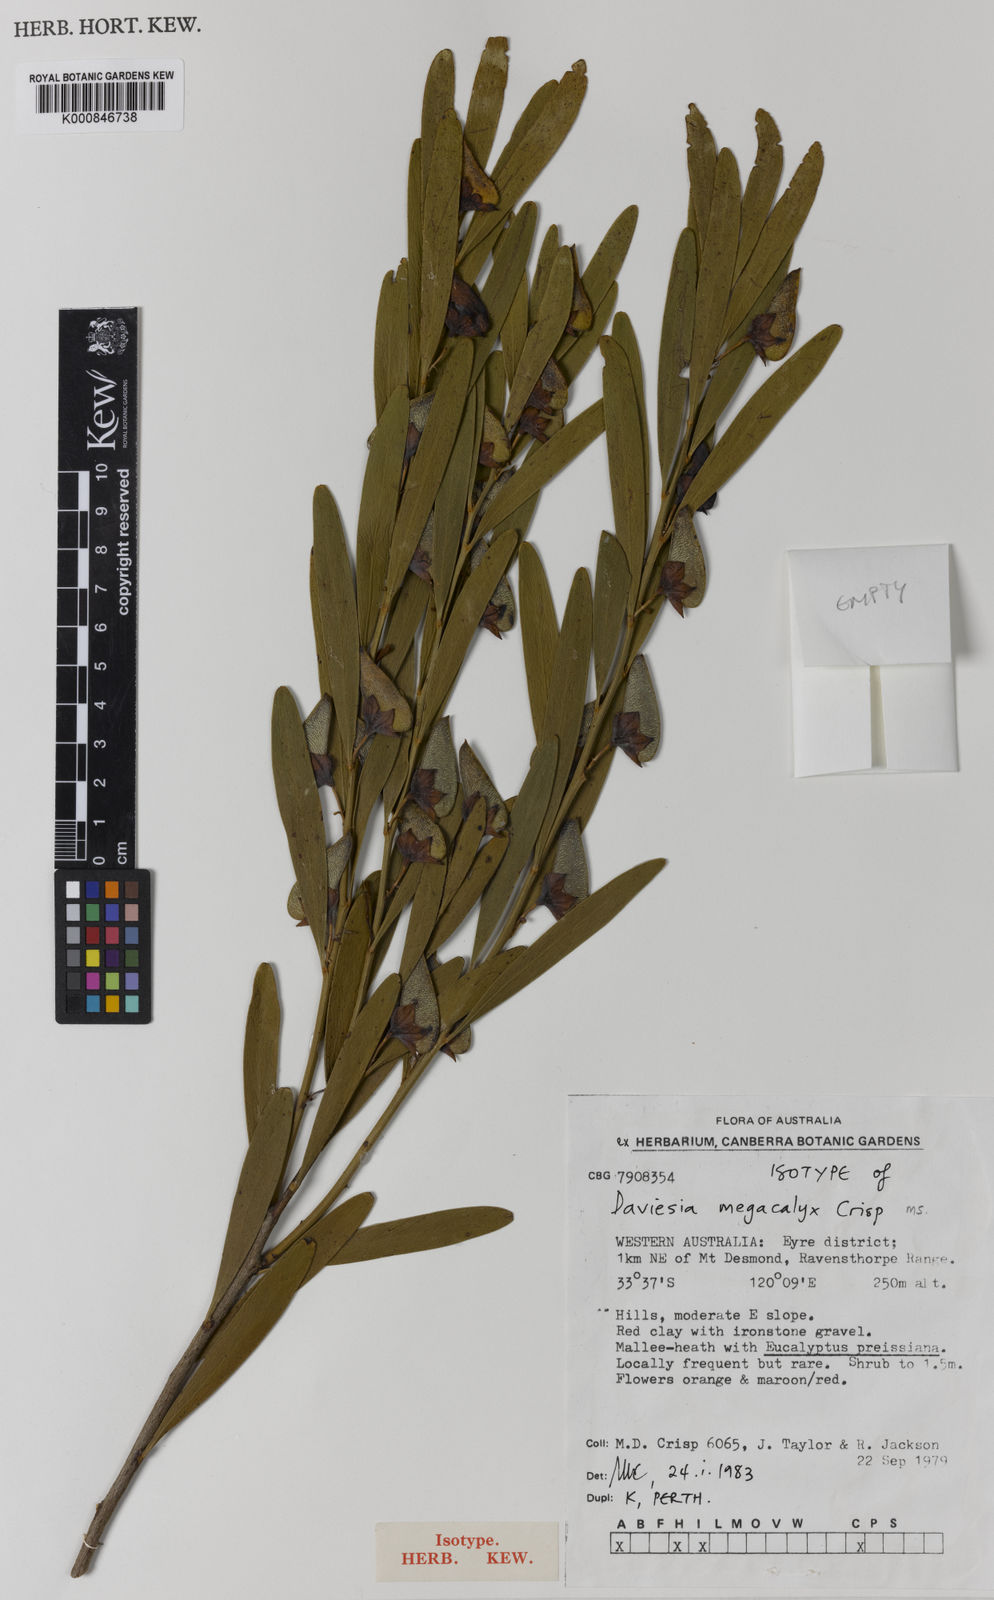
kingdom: Plantae
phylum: Tracheophyta
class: Magnoliopsida
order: Fabales
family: Fabaceae
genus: Daviesia
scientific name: Daviesia megacalyx
